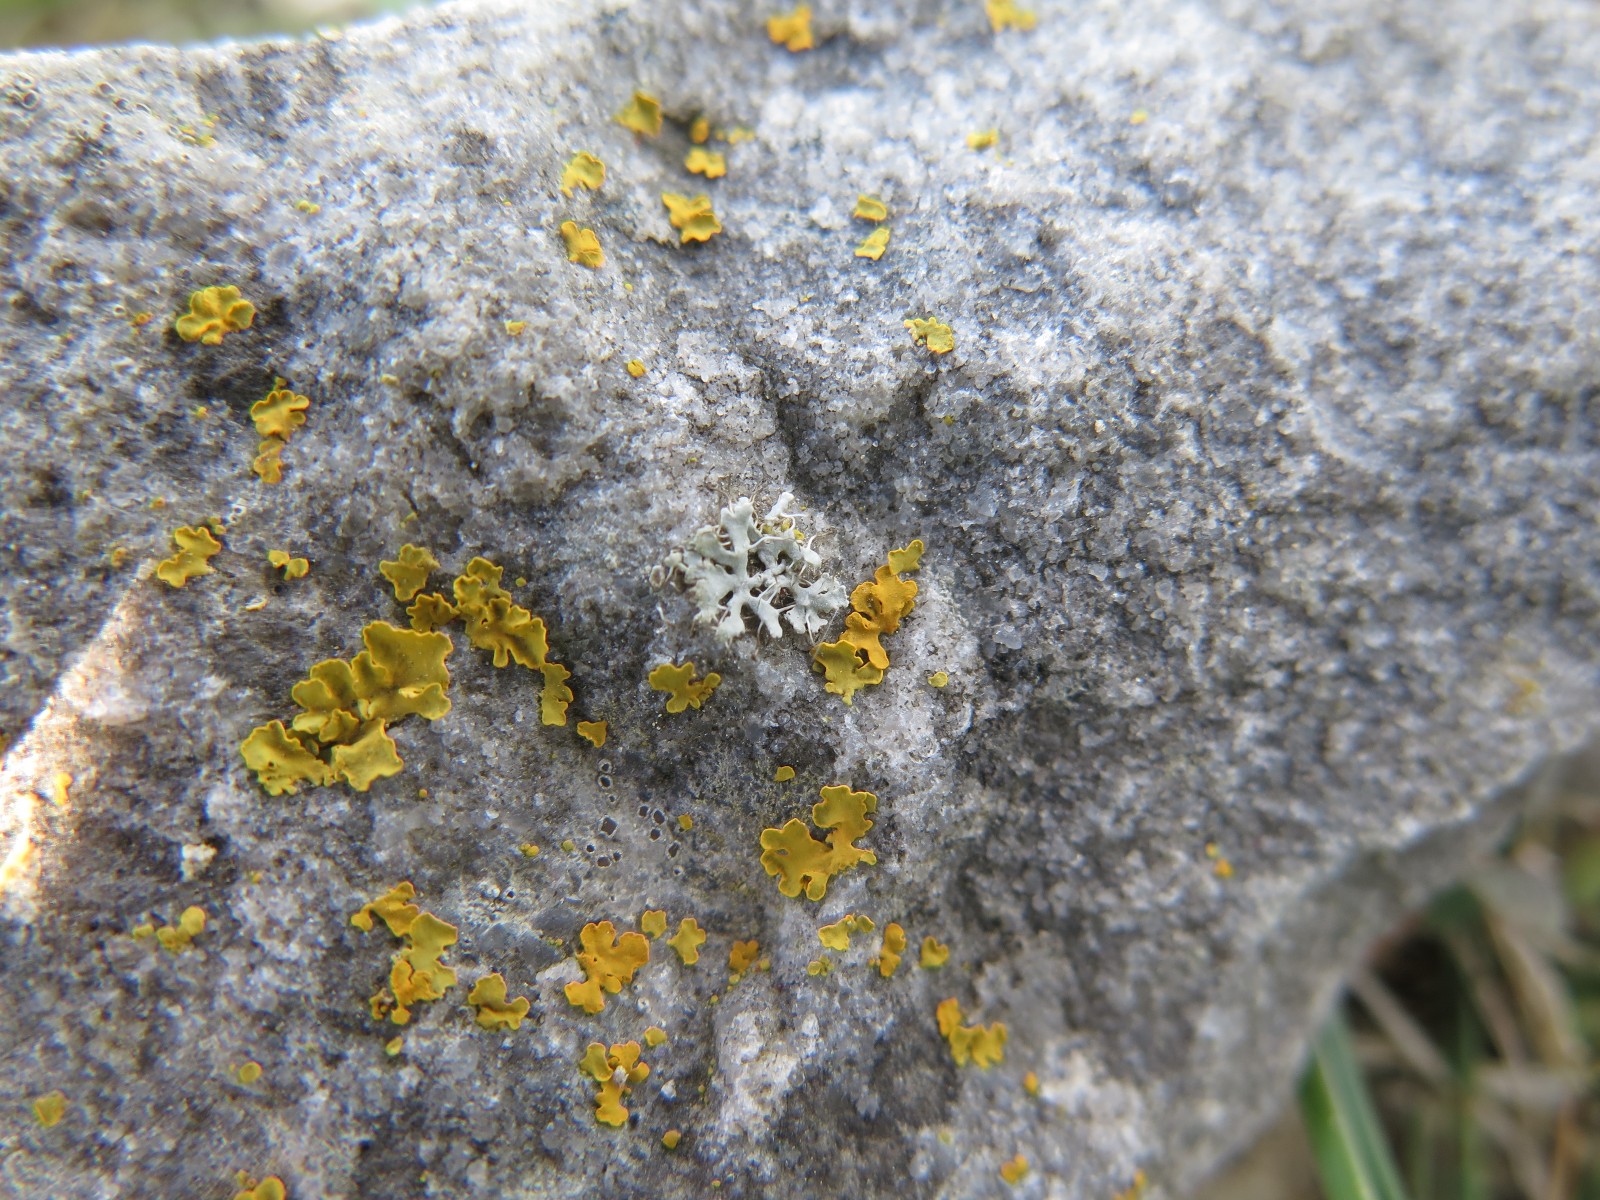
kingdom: Fungi
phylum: Ascomycota
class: Lecanoromycetes
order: Caliciales
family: Physciaceae
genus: Physcia
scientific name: Physcia tenella
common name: spæd rosetlav
